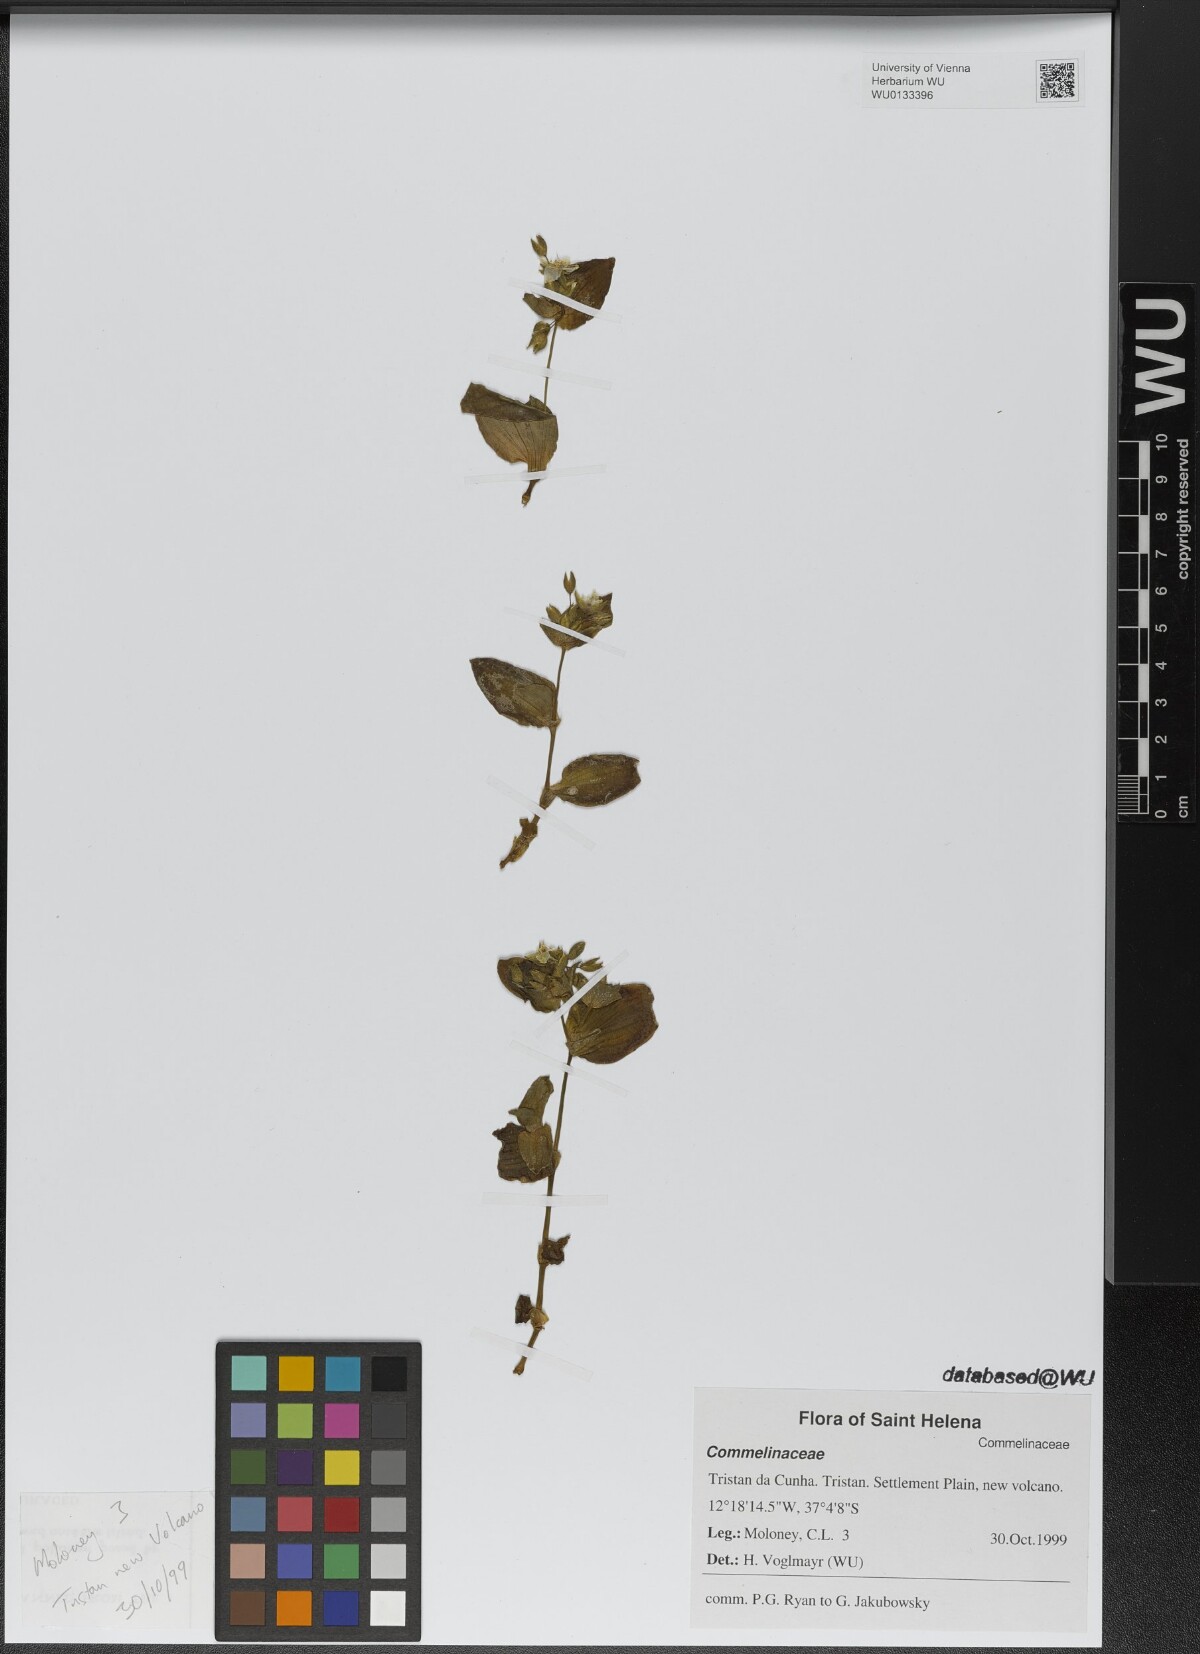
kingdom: Plantae
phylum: Tracheophyta
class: Liliopsida
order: Commelinales
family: Commelinaceae
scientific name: Commelinaceae
